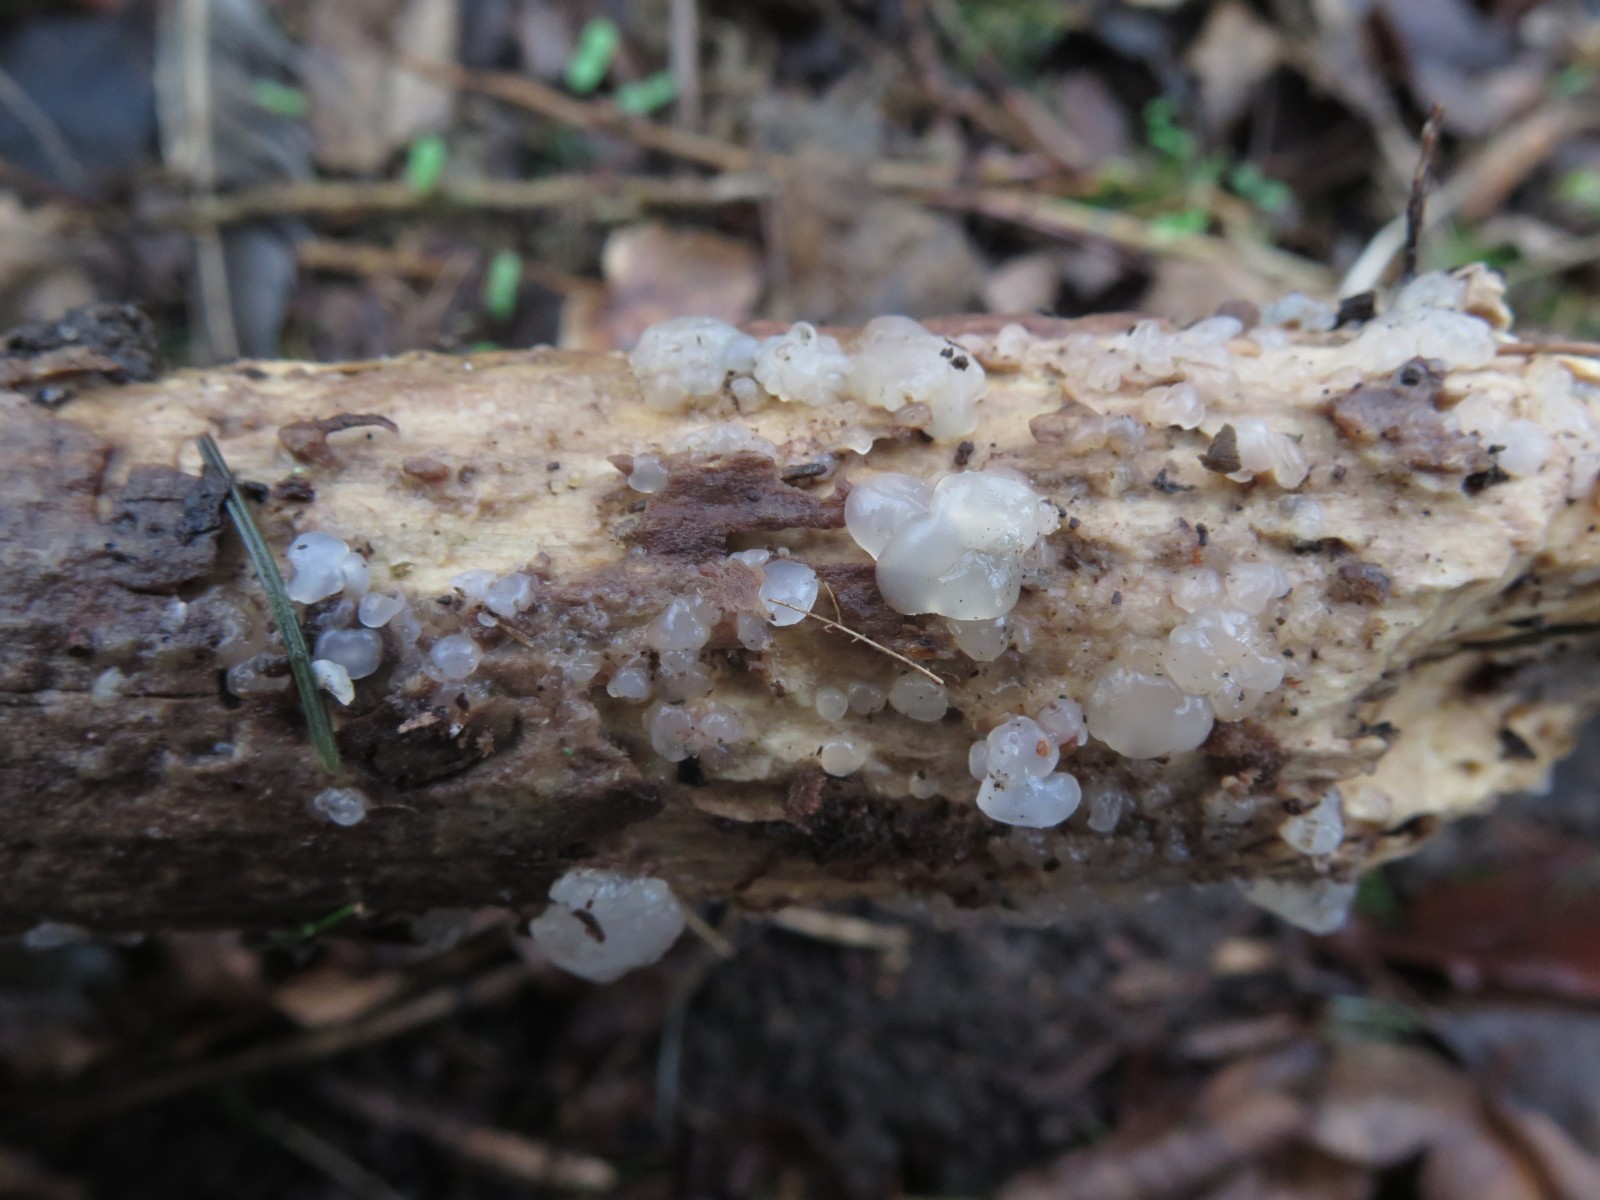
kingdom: Fungi
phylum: Basidiomycota
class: Agaricomycetes
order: Auriculariales
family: Hyaloriaceae
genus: Myxarium
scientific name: Myxarium nucleatum
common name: klar bævretop
